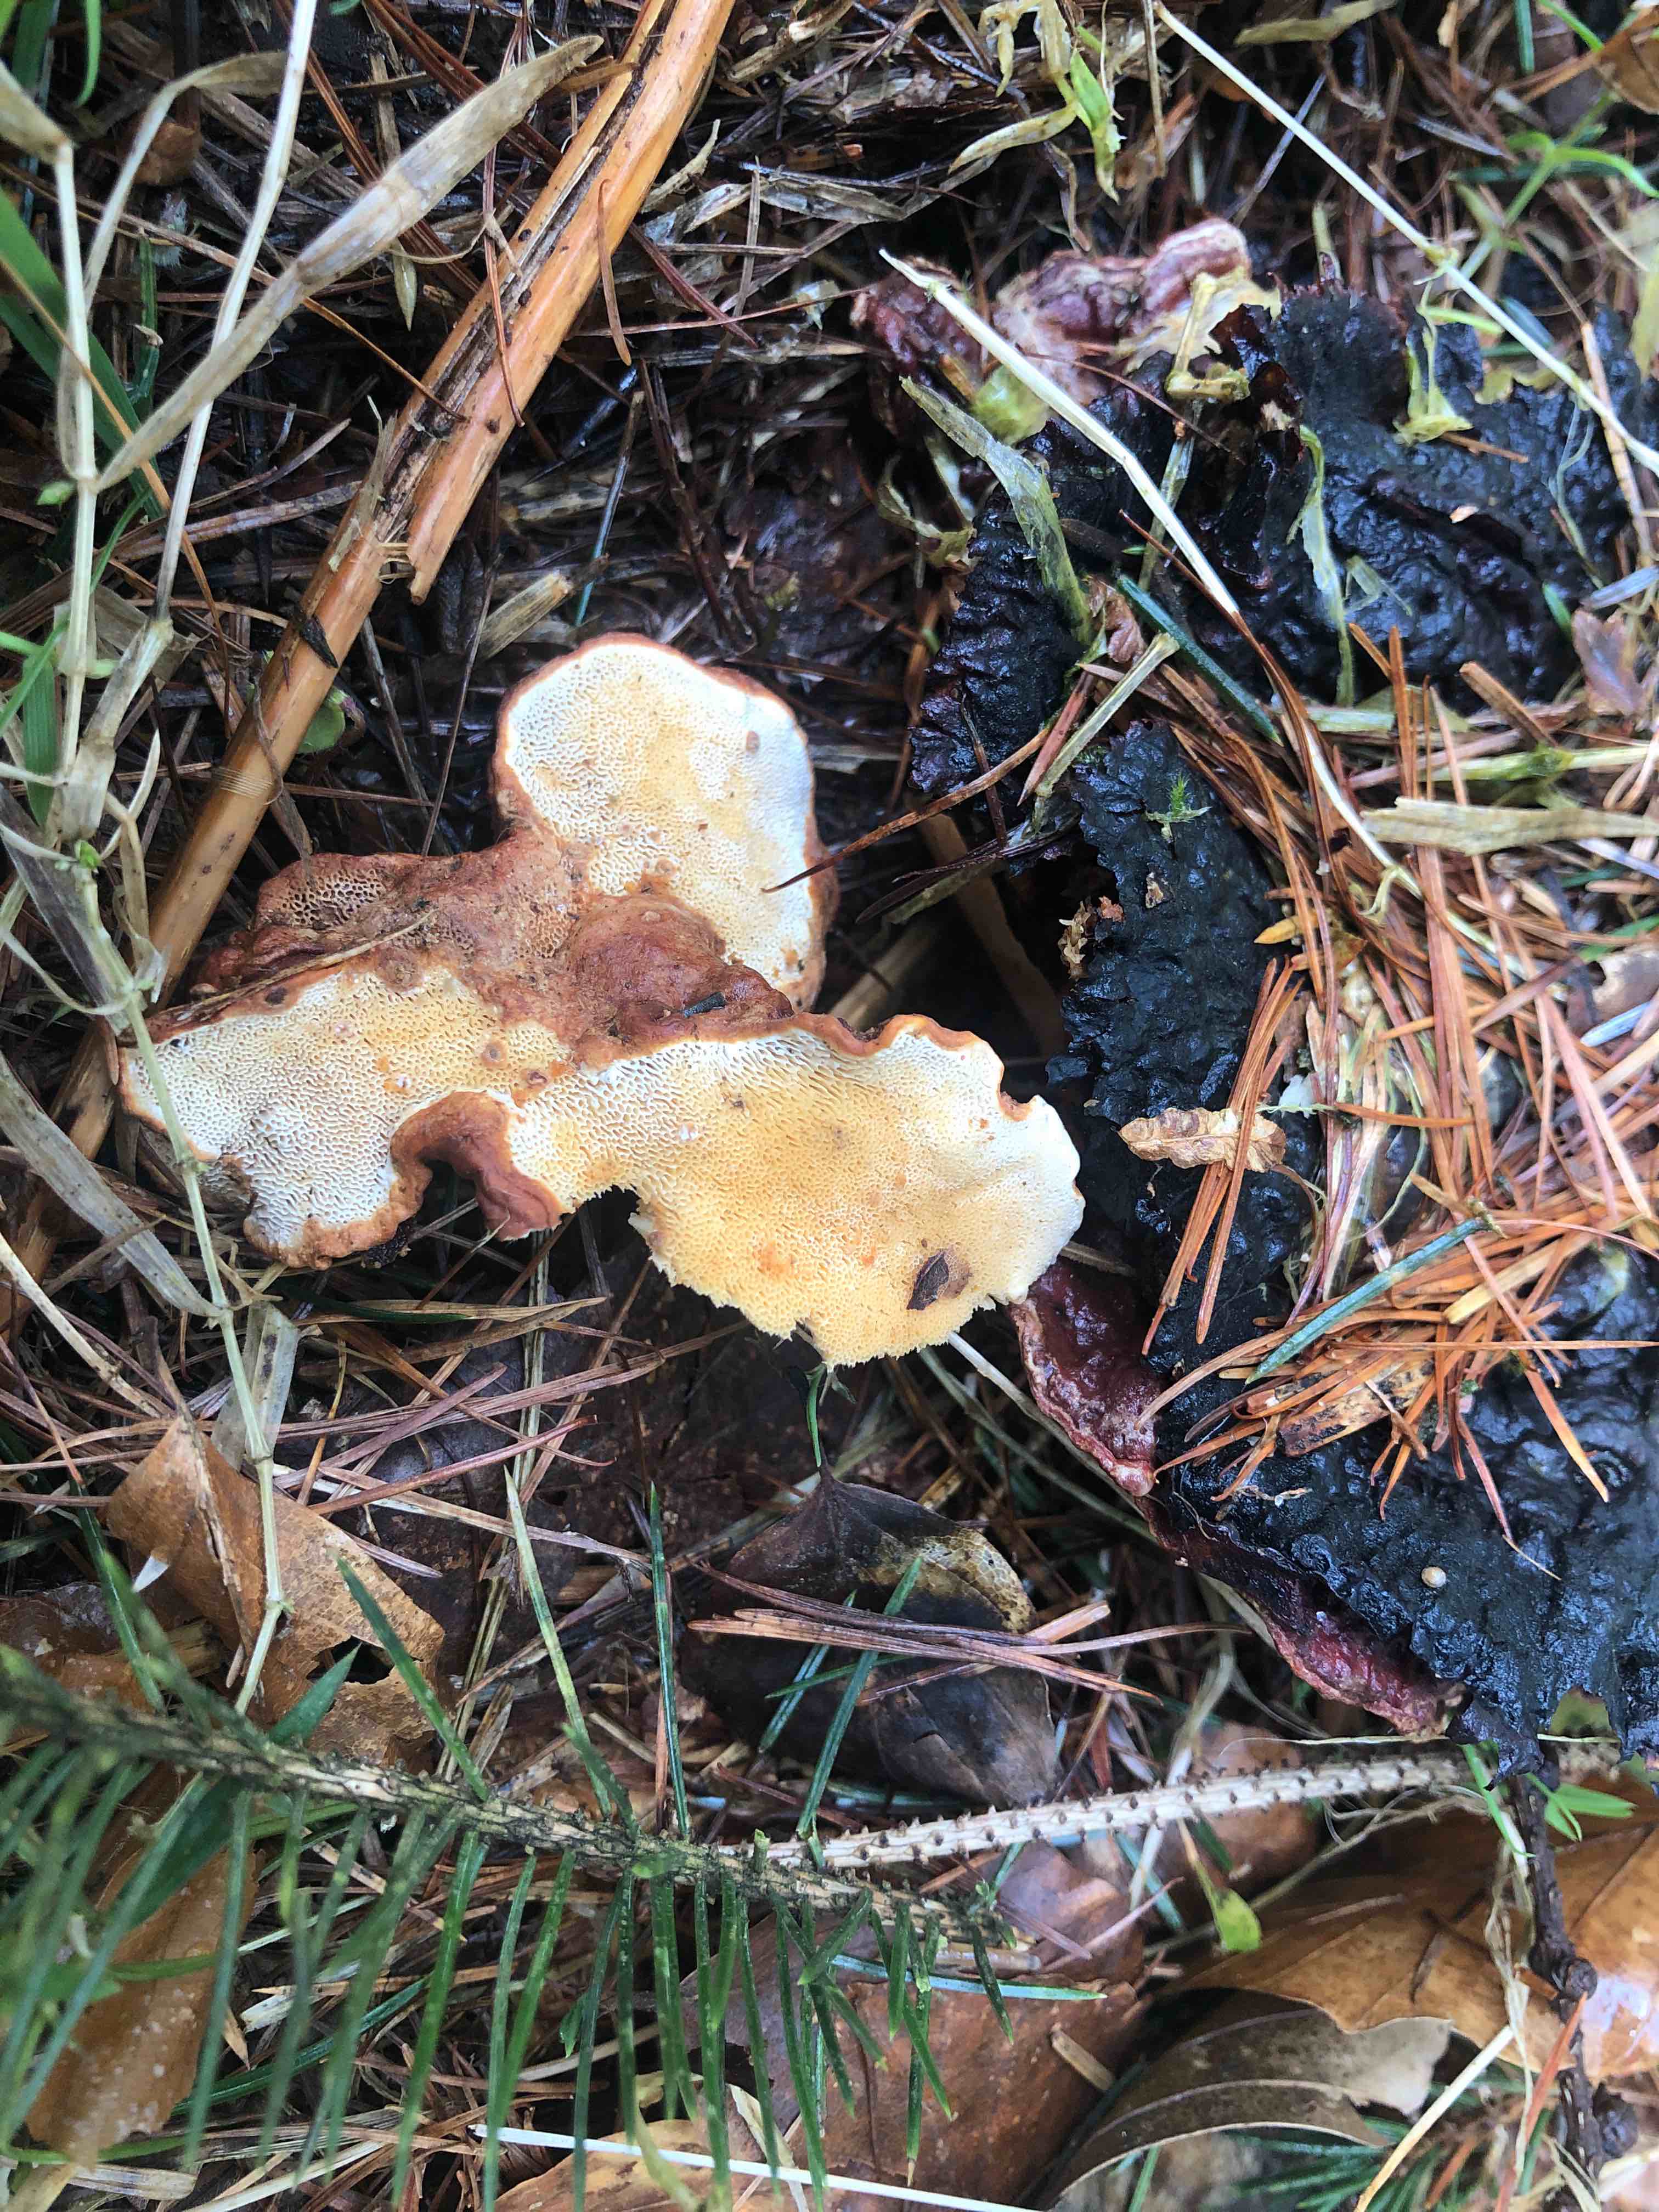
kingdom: Fungi
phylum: Basidiomycota
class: Agaricomycetes
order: Russulales
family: Bondarzewiaceae
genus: Heterobasidion
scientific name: Heterobasidion annosum
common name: almindelig rodfordærver
